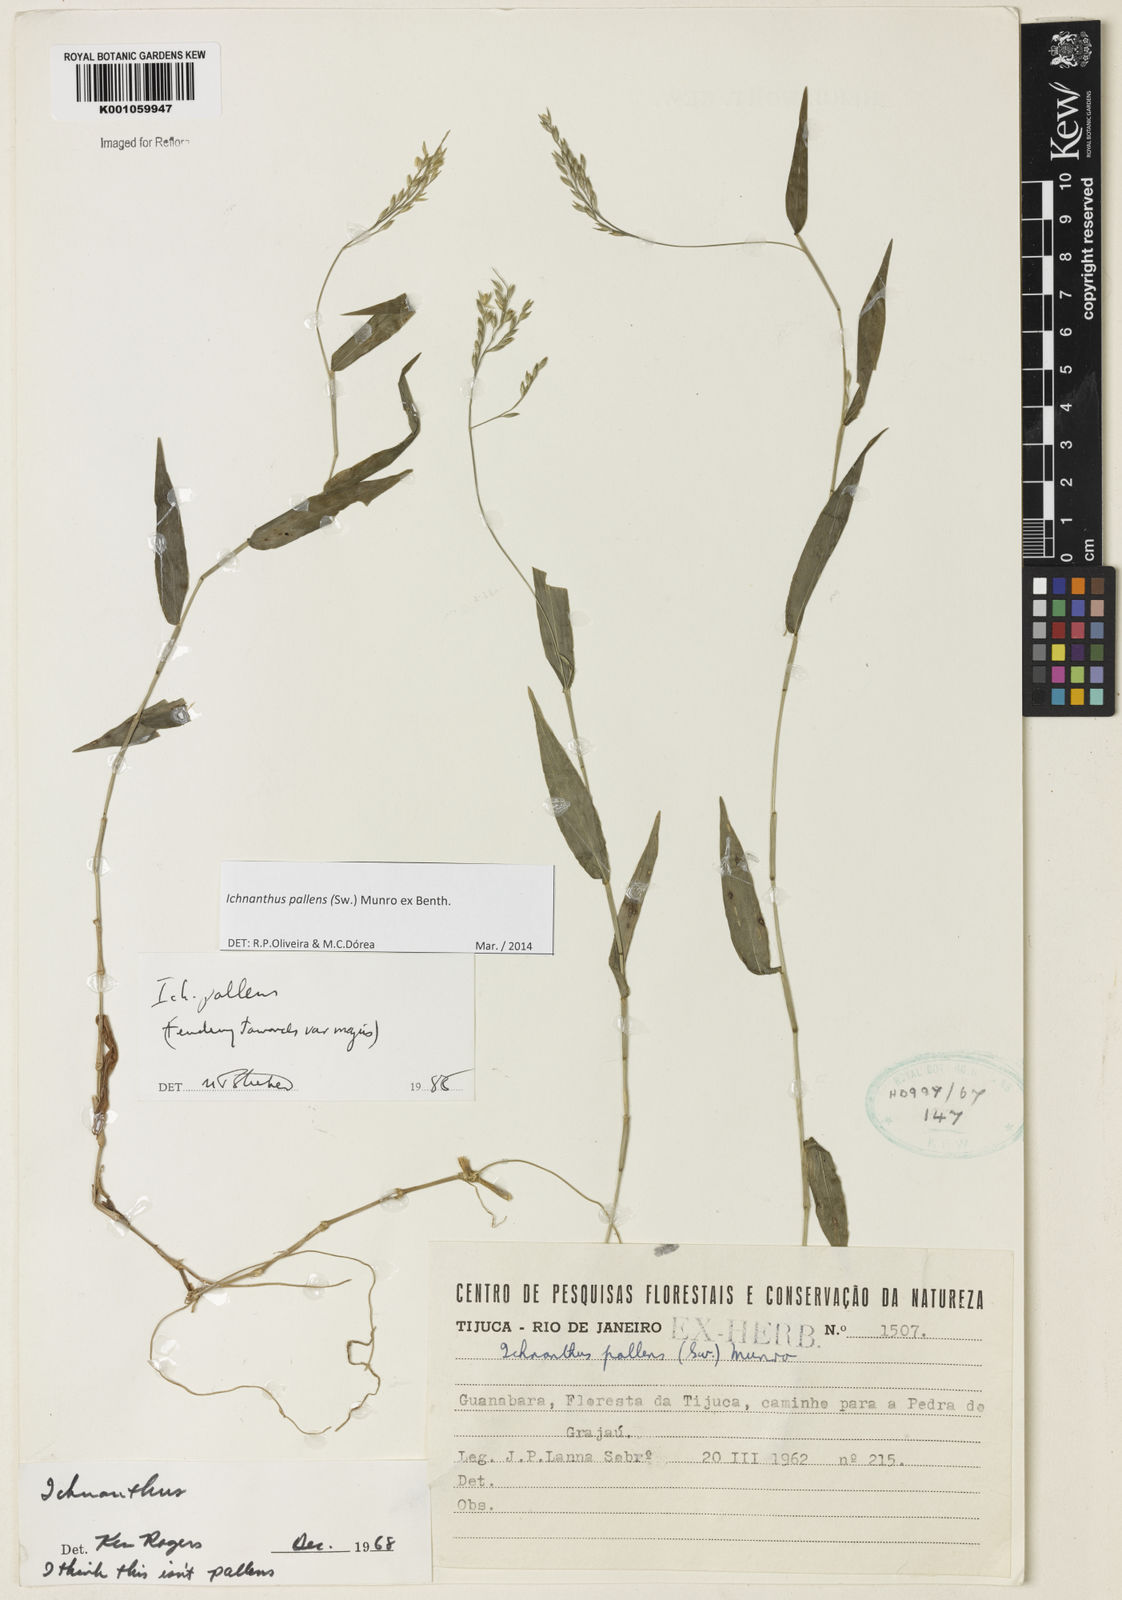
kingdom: Plantae
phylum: Tracheophyta
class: Liliopsida
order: Poales
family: Poaceae
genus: Ichnanthus
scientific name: Ichnanthus pallens
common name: Water grass
